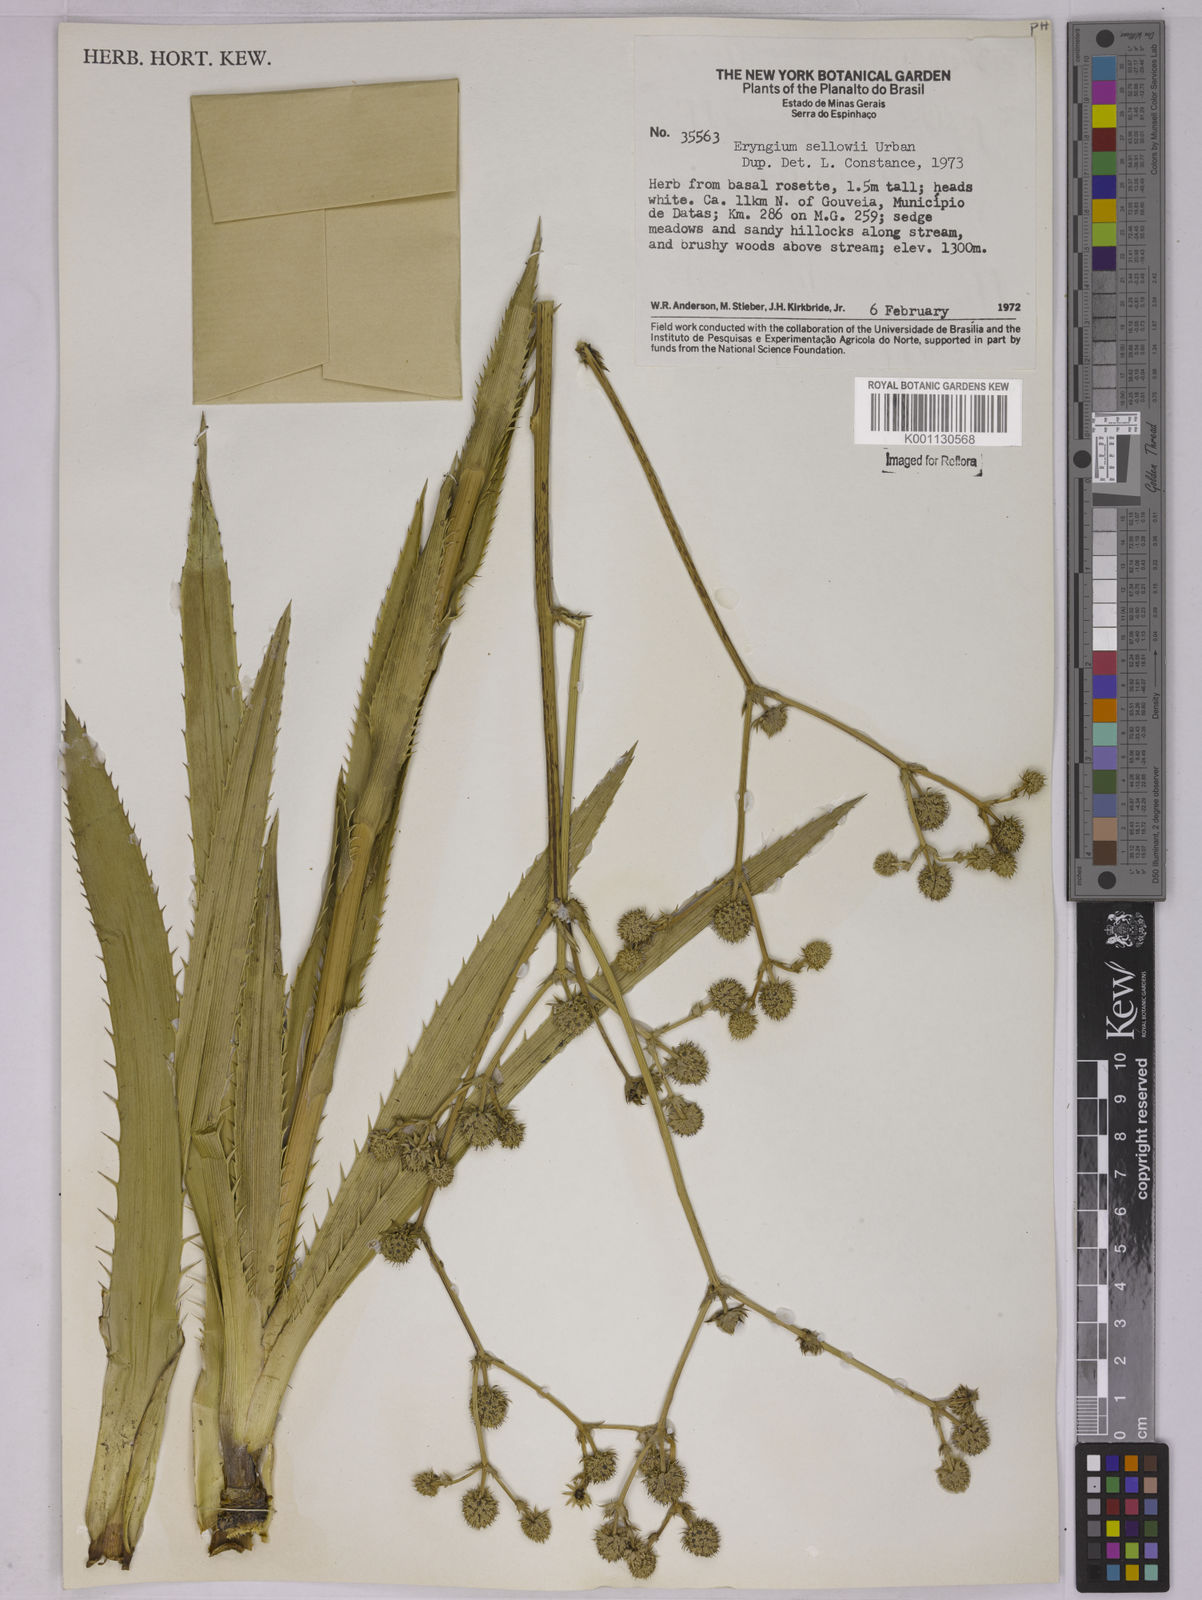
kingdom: Plantae
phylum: Tracheophyta
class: Magnoliopsida
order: Apiales
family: Apiaceae
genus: Eryngium
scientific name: Eryngium sellowii
